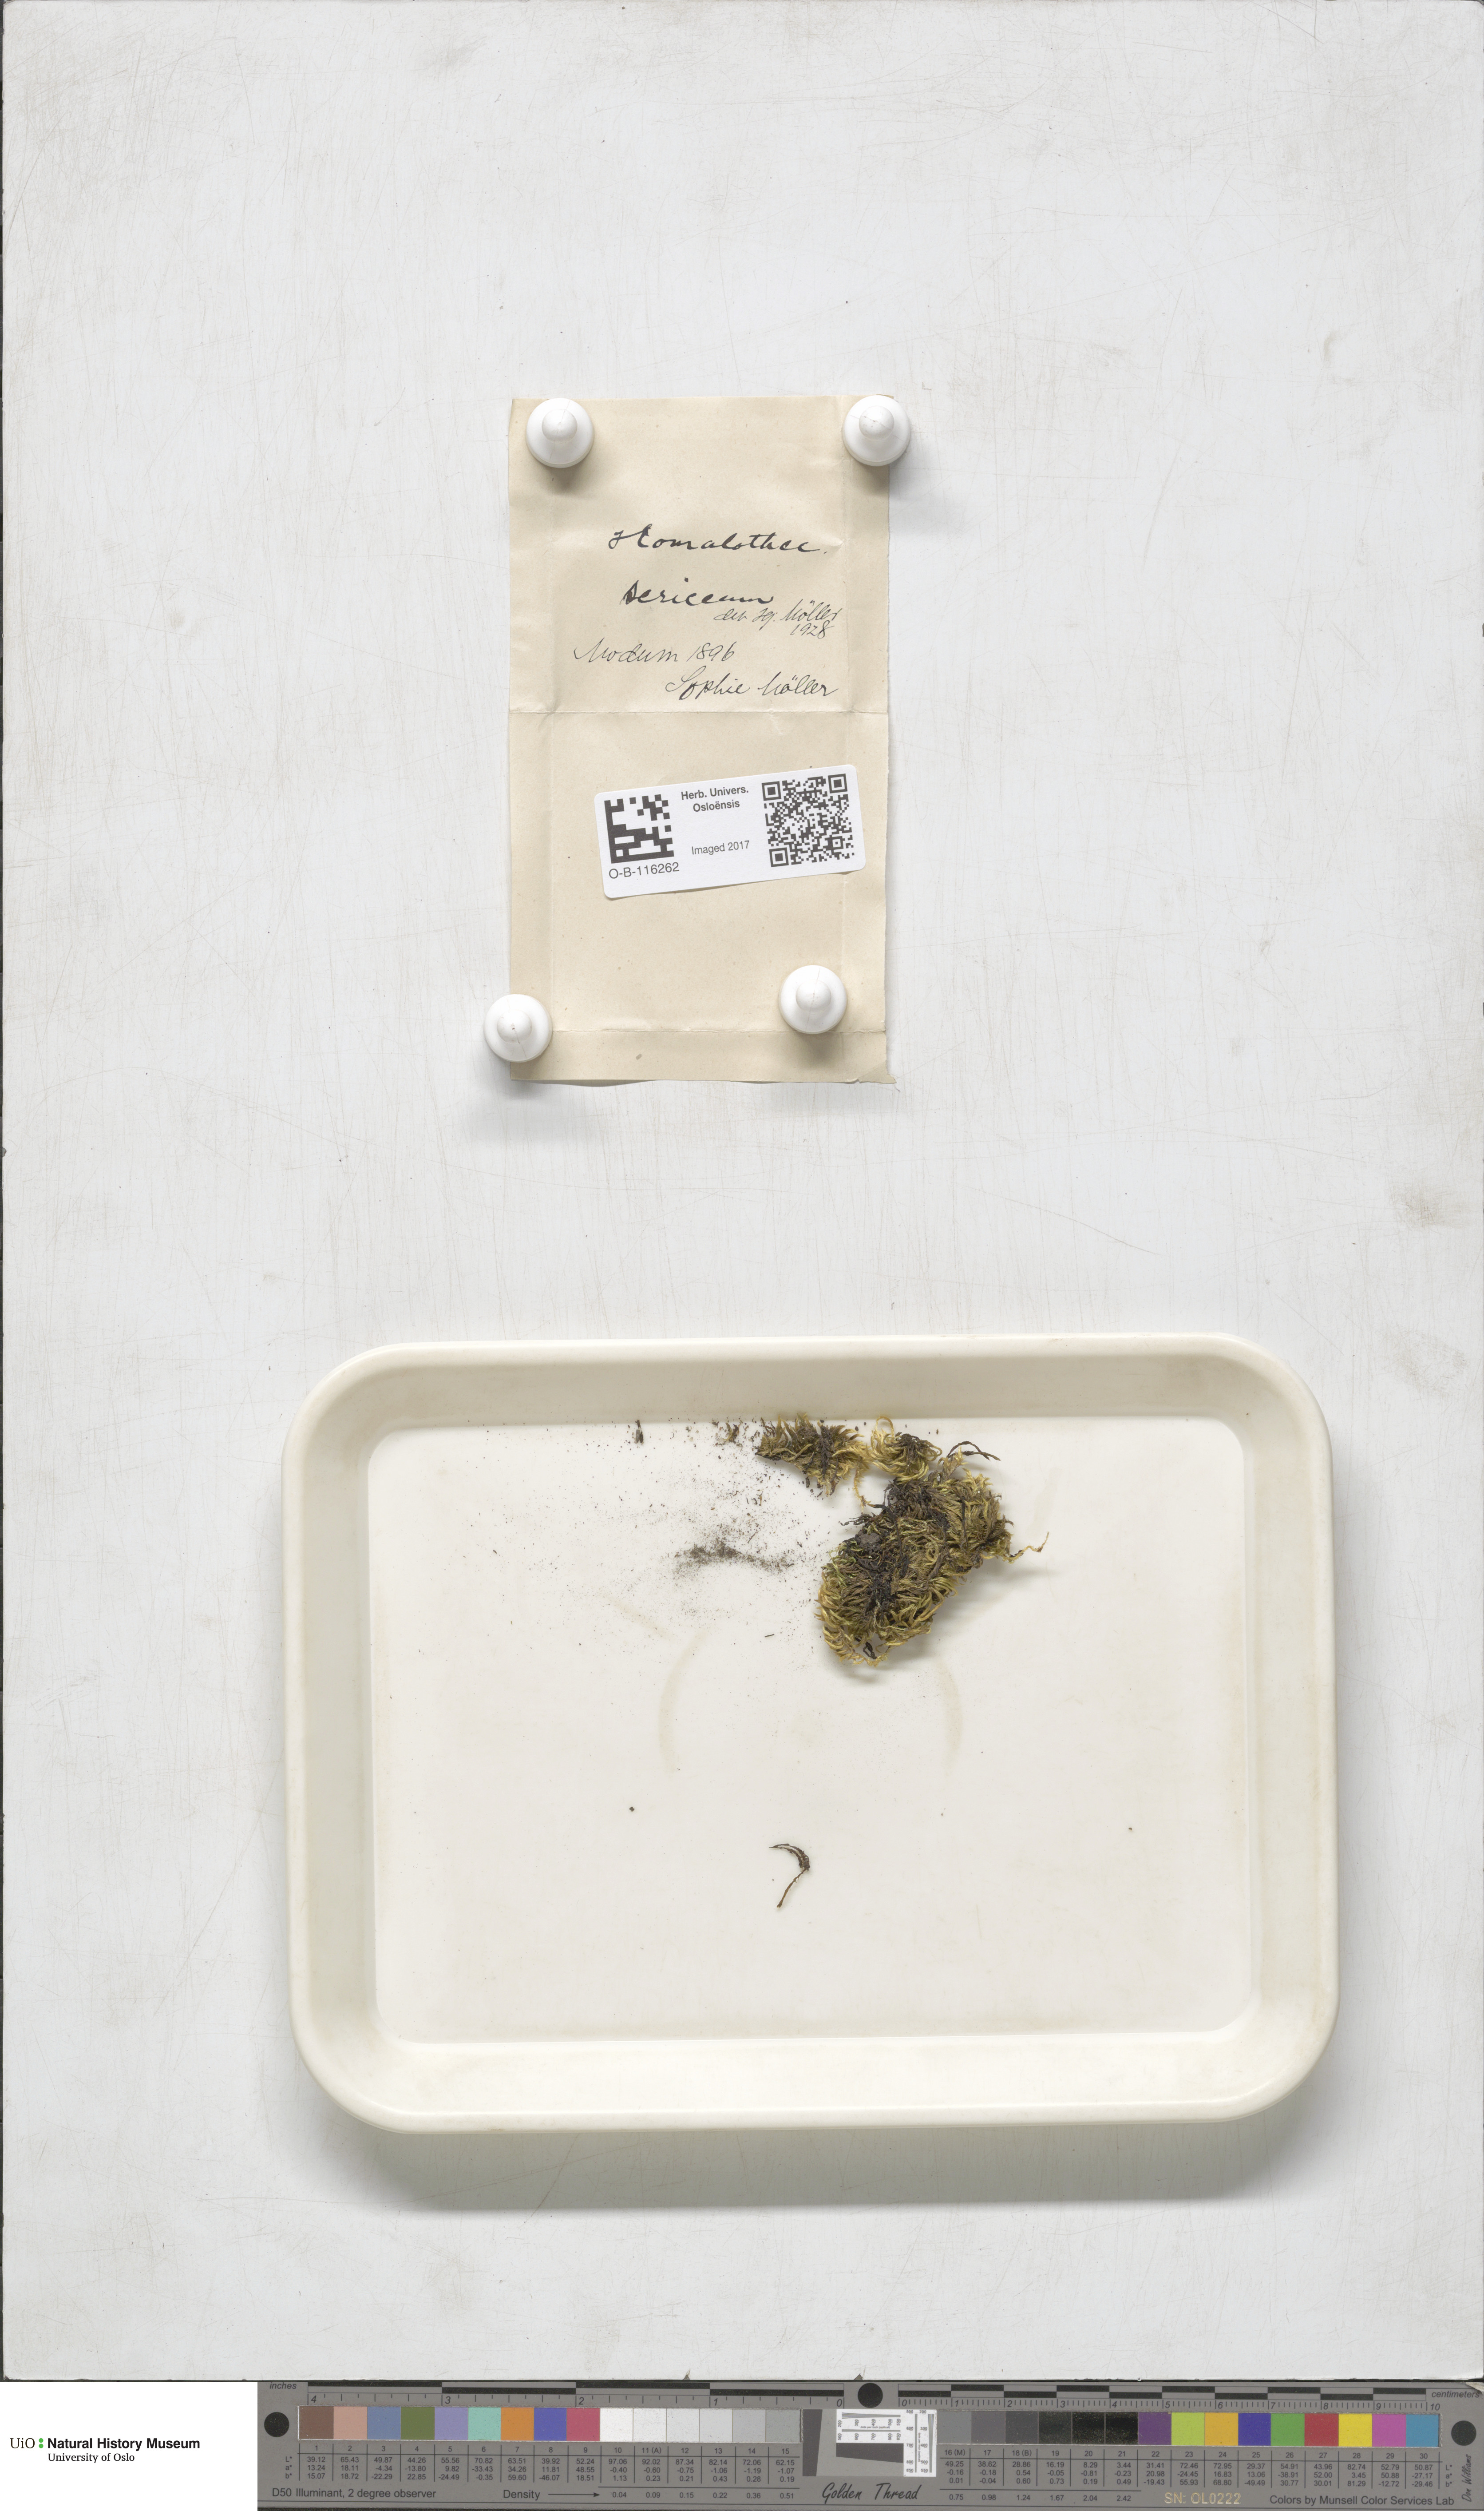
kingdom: Plantae
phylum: Bryophyta
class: Bryopsida
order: Hypnales
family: Brachytheciaceae
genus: Homalothecium
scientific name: Homalothecium sericeum
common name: Silky wall feather-moss
